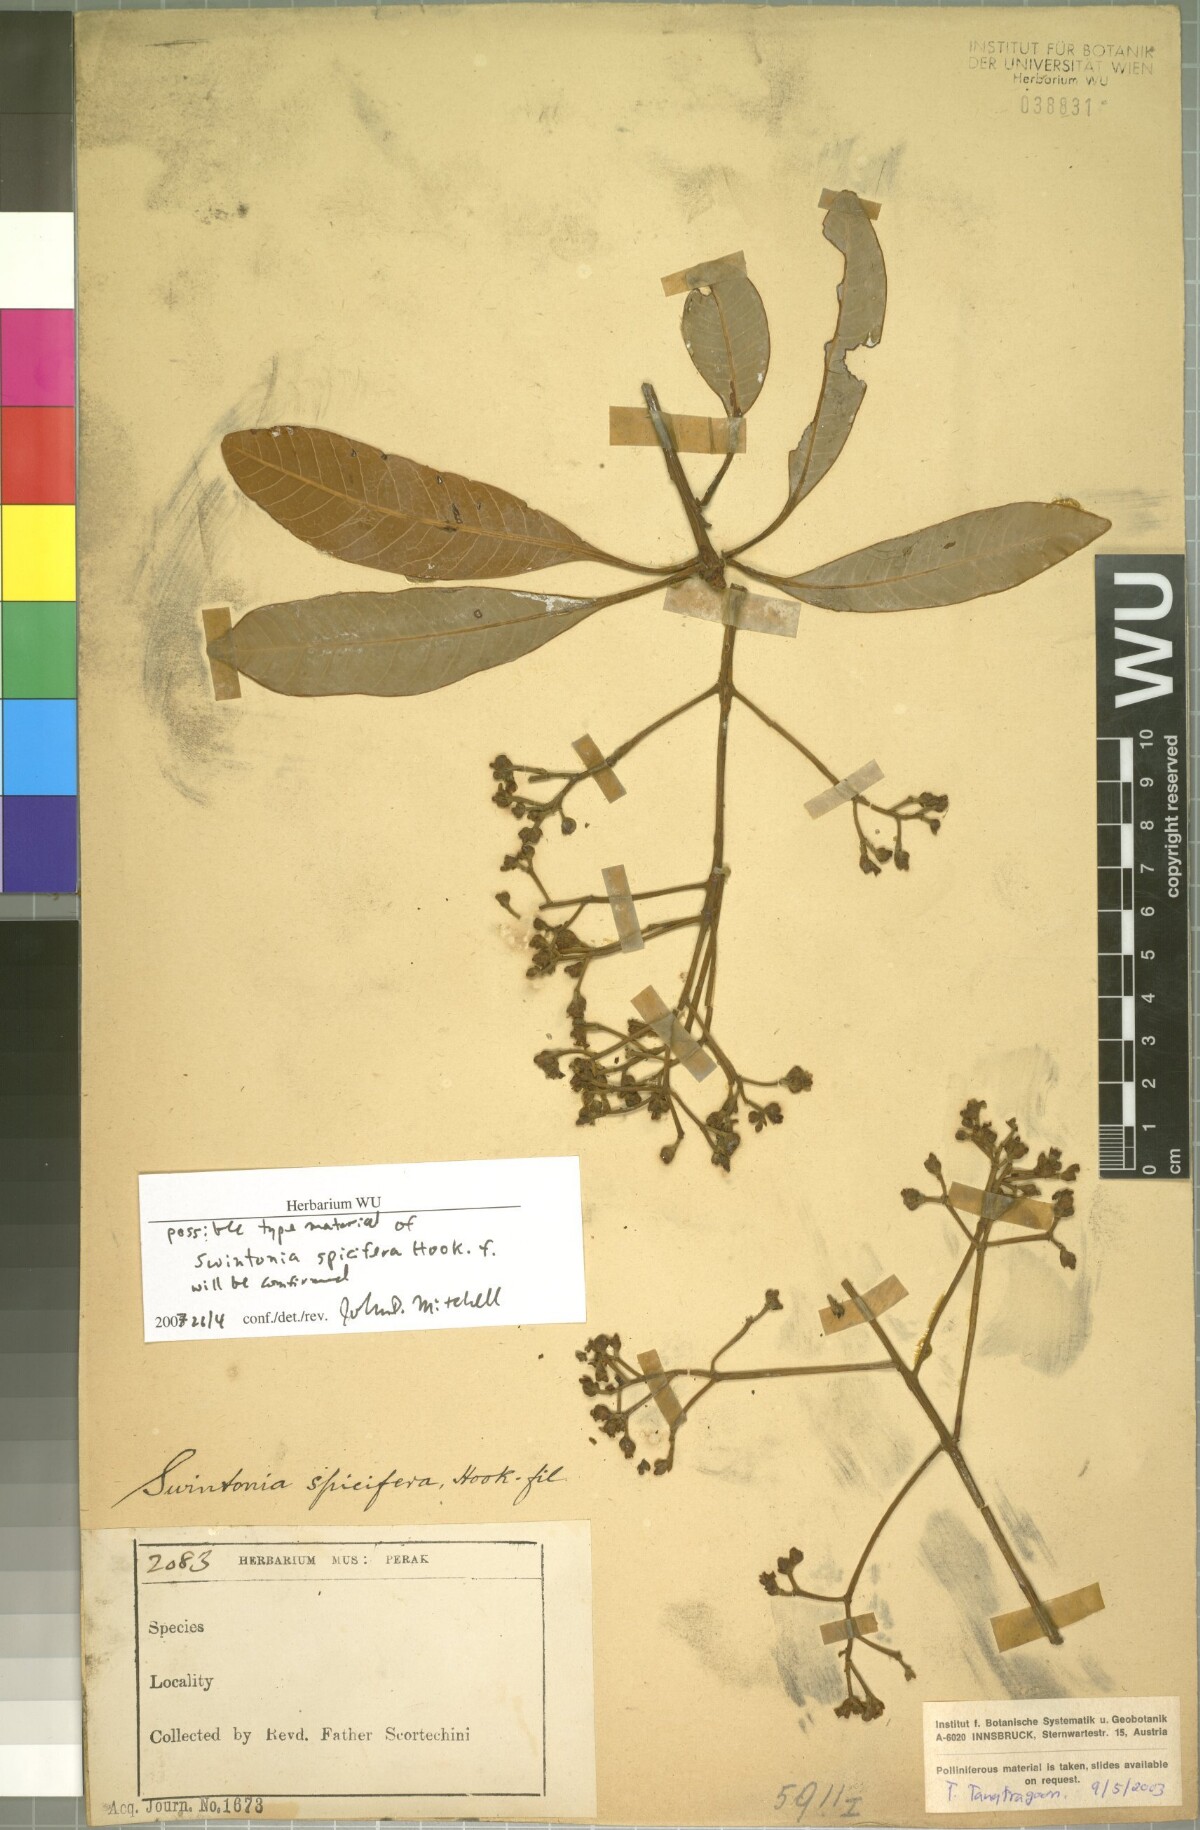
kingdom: Plantae
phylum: Tracheophyta
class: Magnoliopsida
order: Sapindales
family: Anacardiaceae
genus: Swintonia
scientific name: Swintonia spicifera
